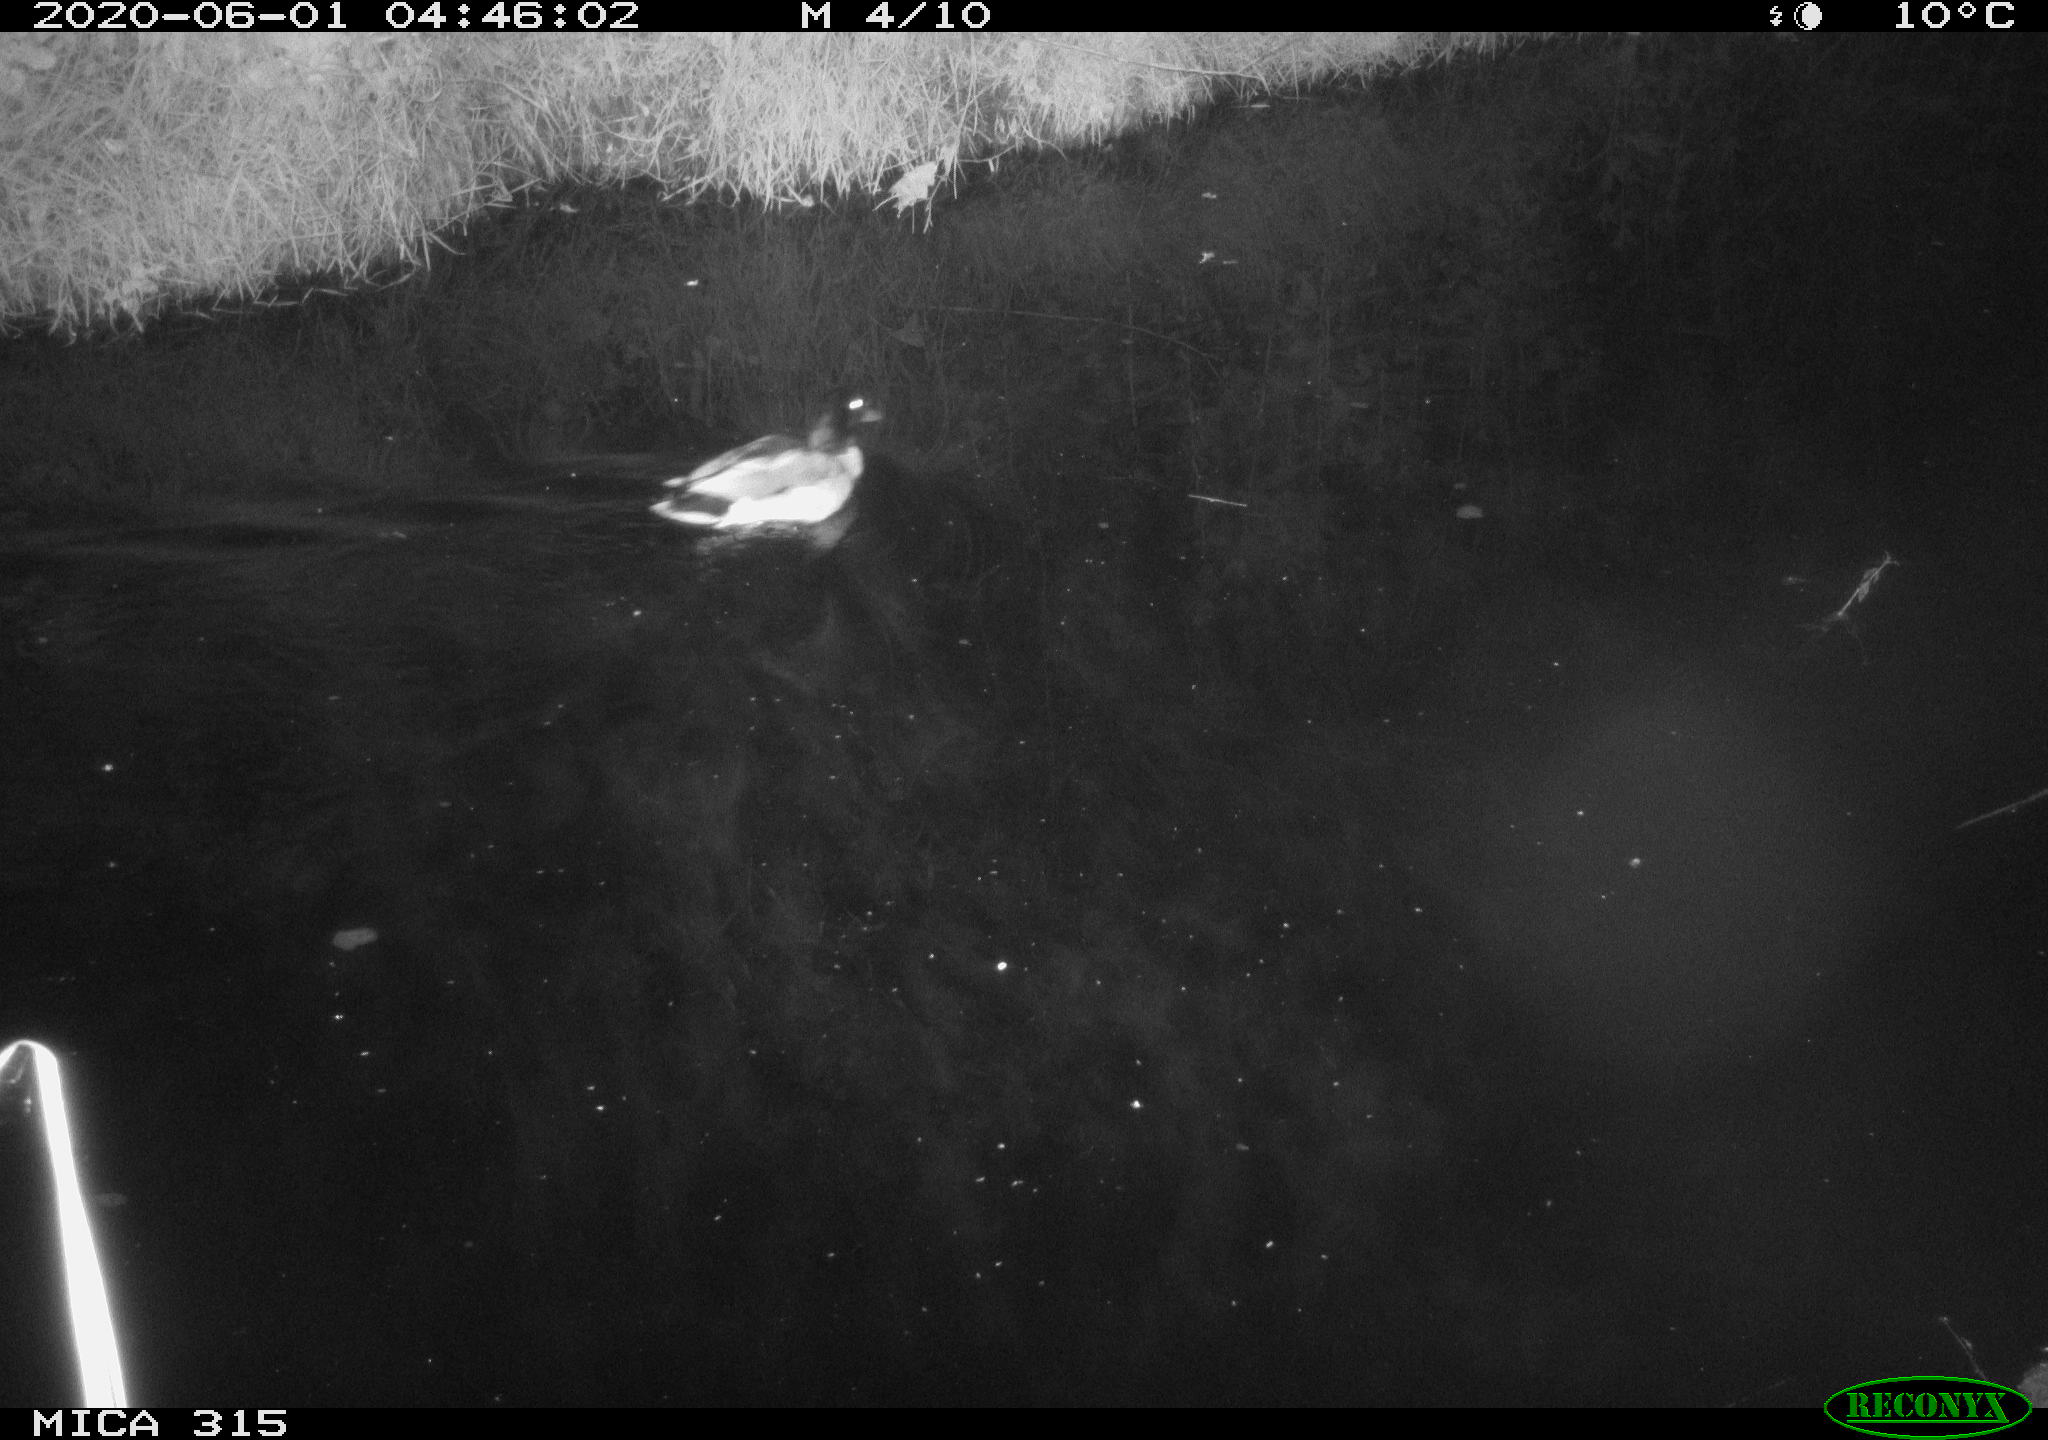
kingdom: Animalia
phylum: Chordata
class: Aves
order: Anseriformes
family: Anatidae
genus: Anas
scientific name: Anas platyrhynchos
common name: Mallard
